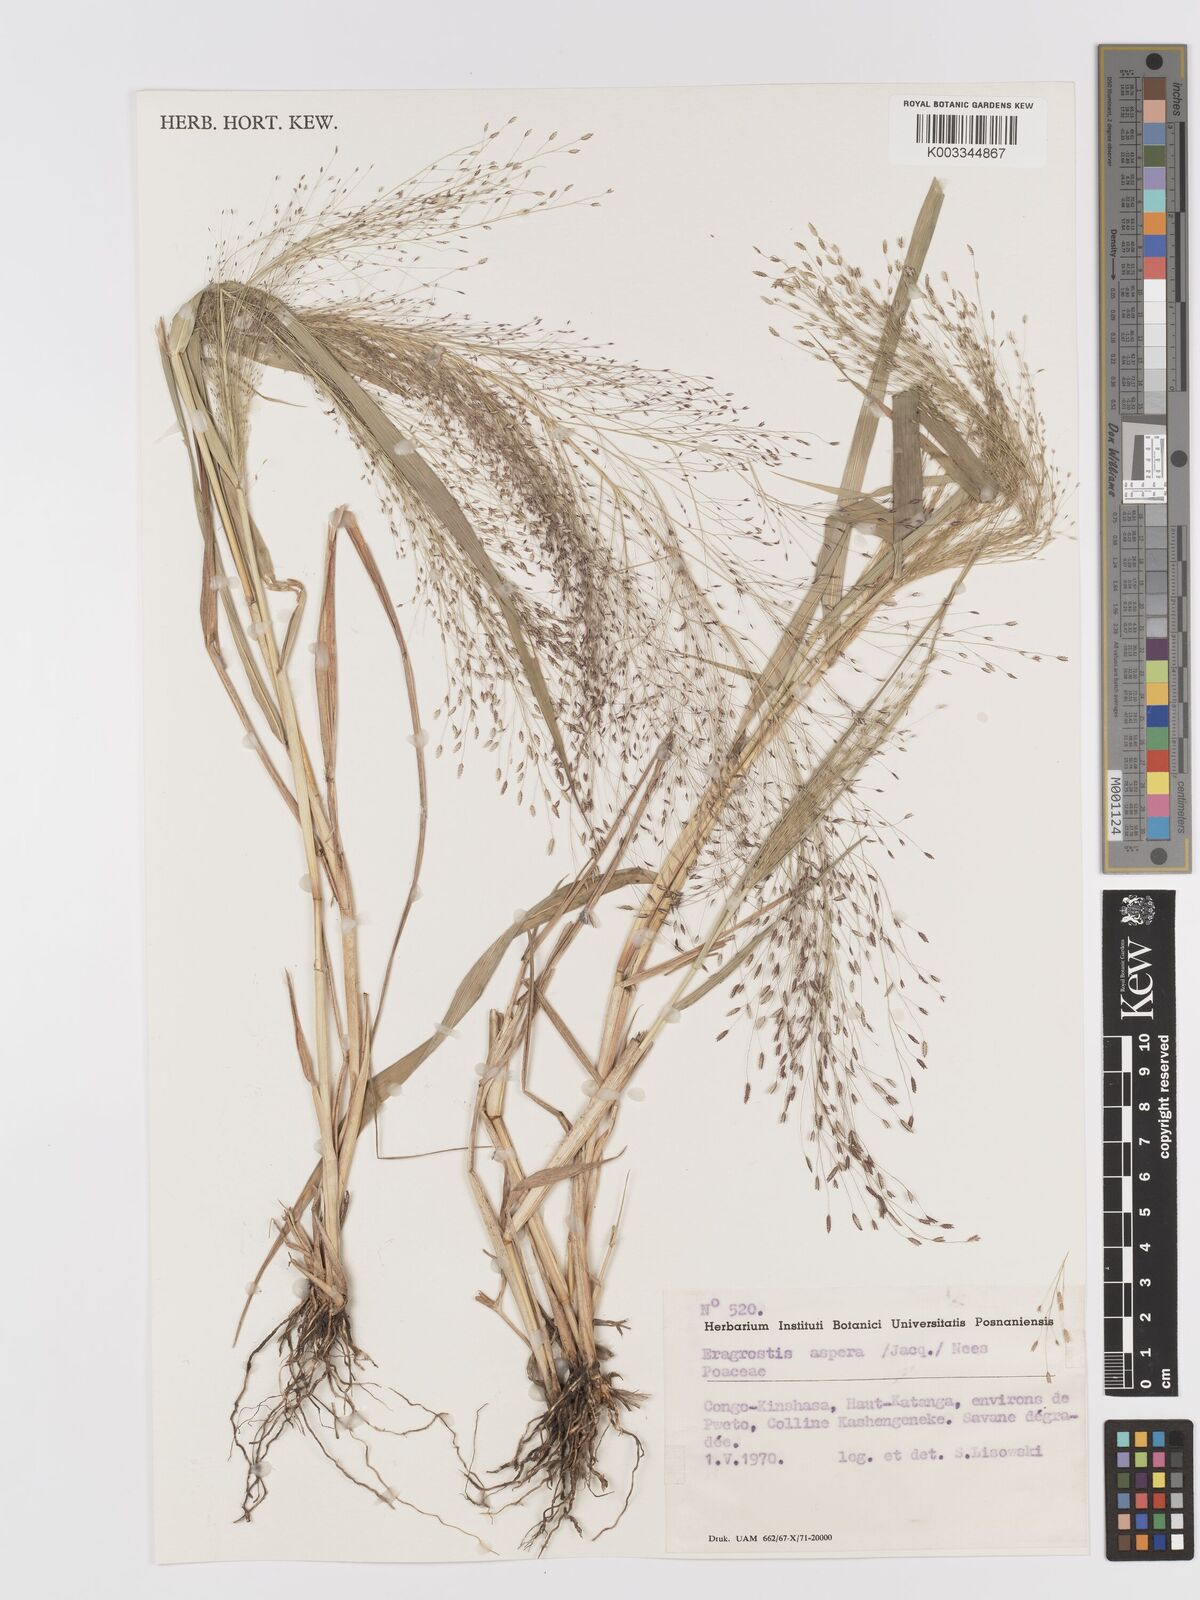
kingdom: Plantae
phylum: Tracheophyta
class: Liliopsida
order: Poales
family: Poaceae
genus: Eragrostis
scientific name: Eragrostis aspera
